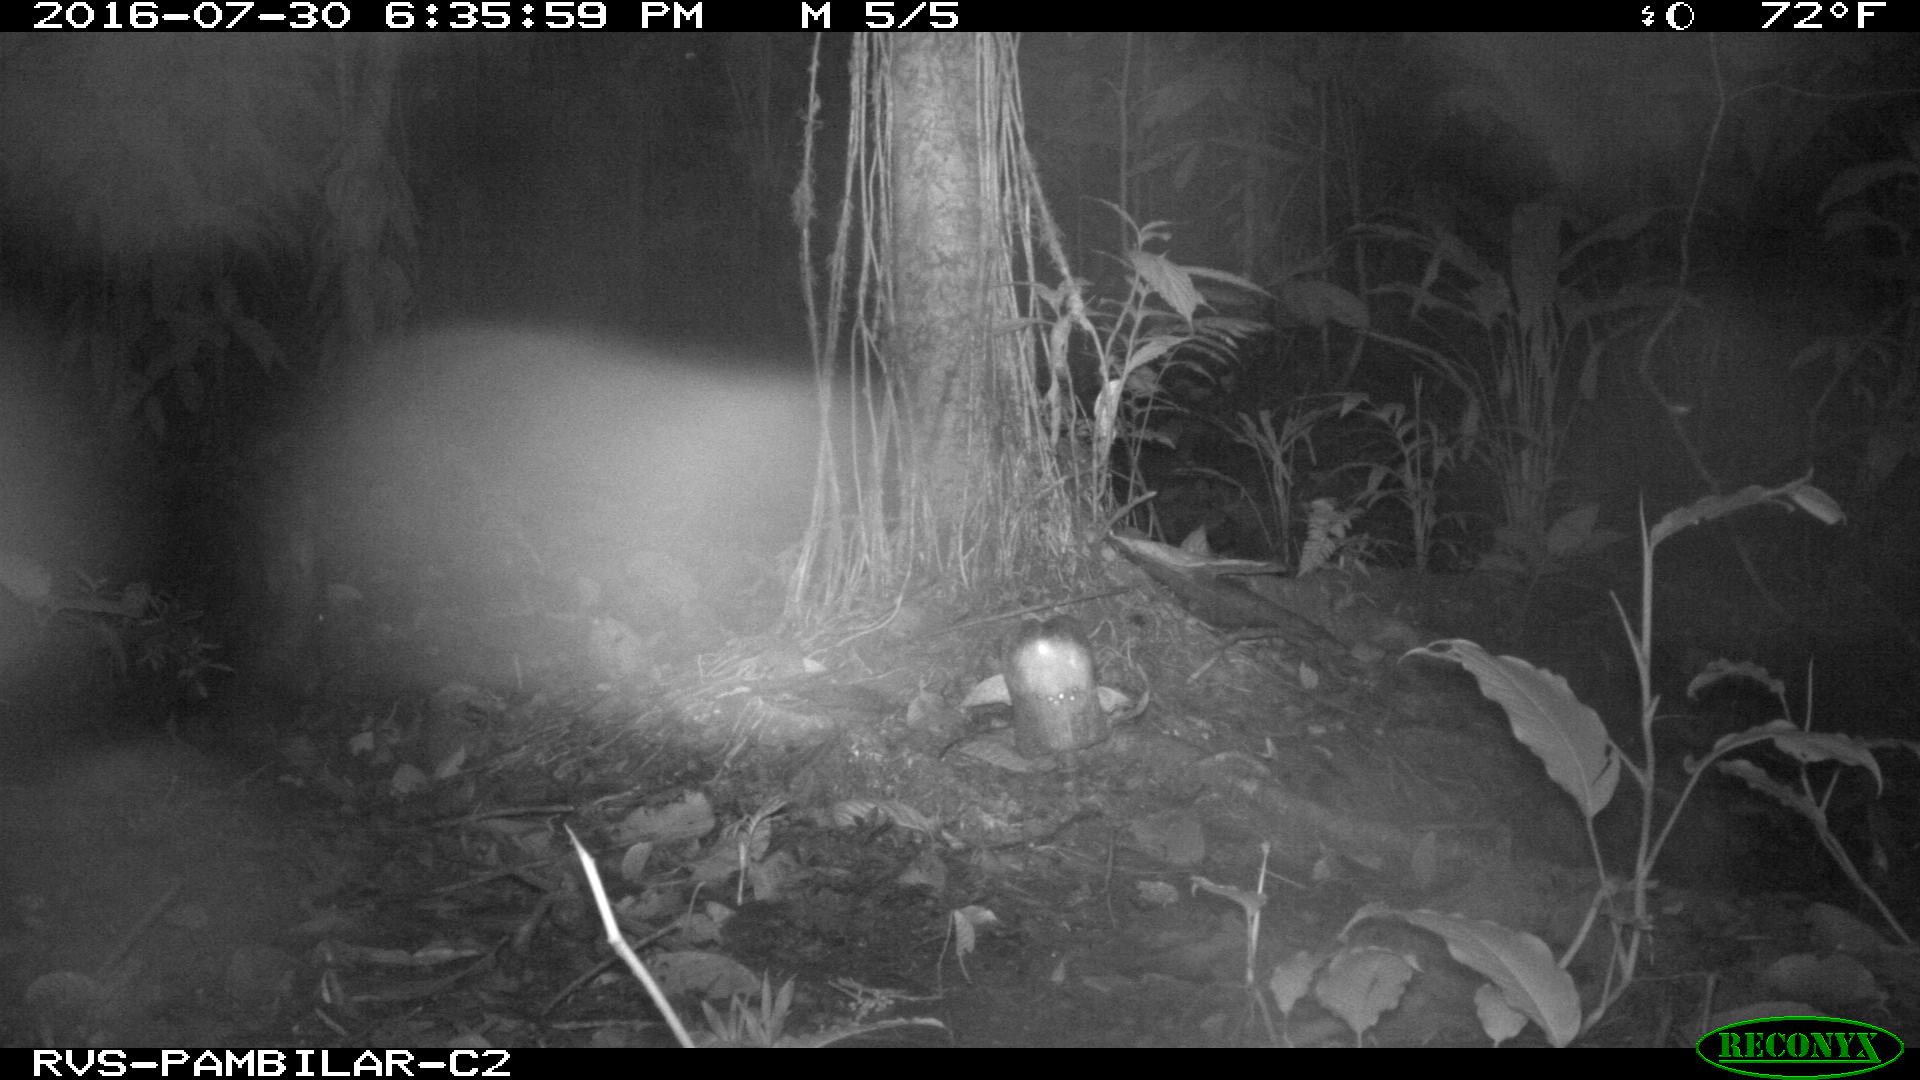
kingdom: Animalia
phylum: Chordata
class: Mammalia
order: Artiodactyla
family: Tayassuidae
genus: Pecari
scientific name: Pecari tajacu
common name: Collared peccary
